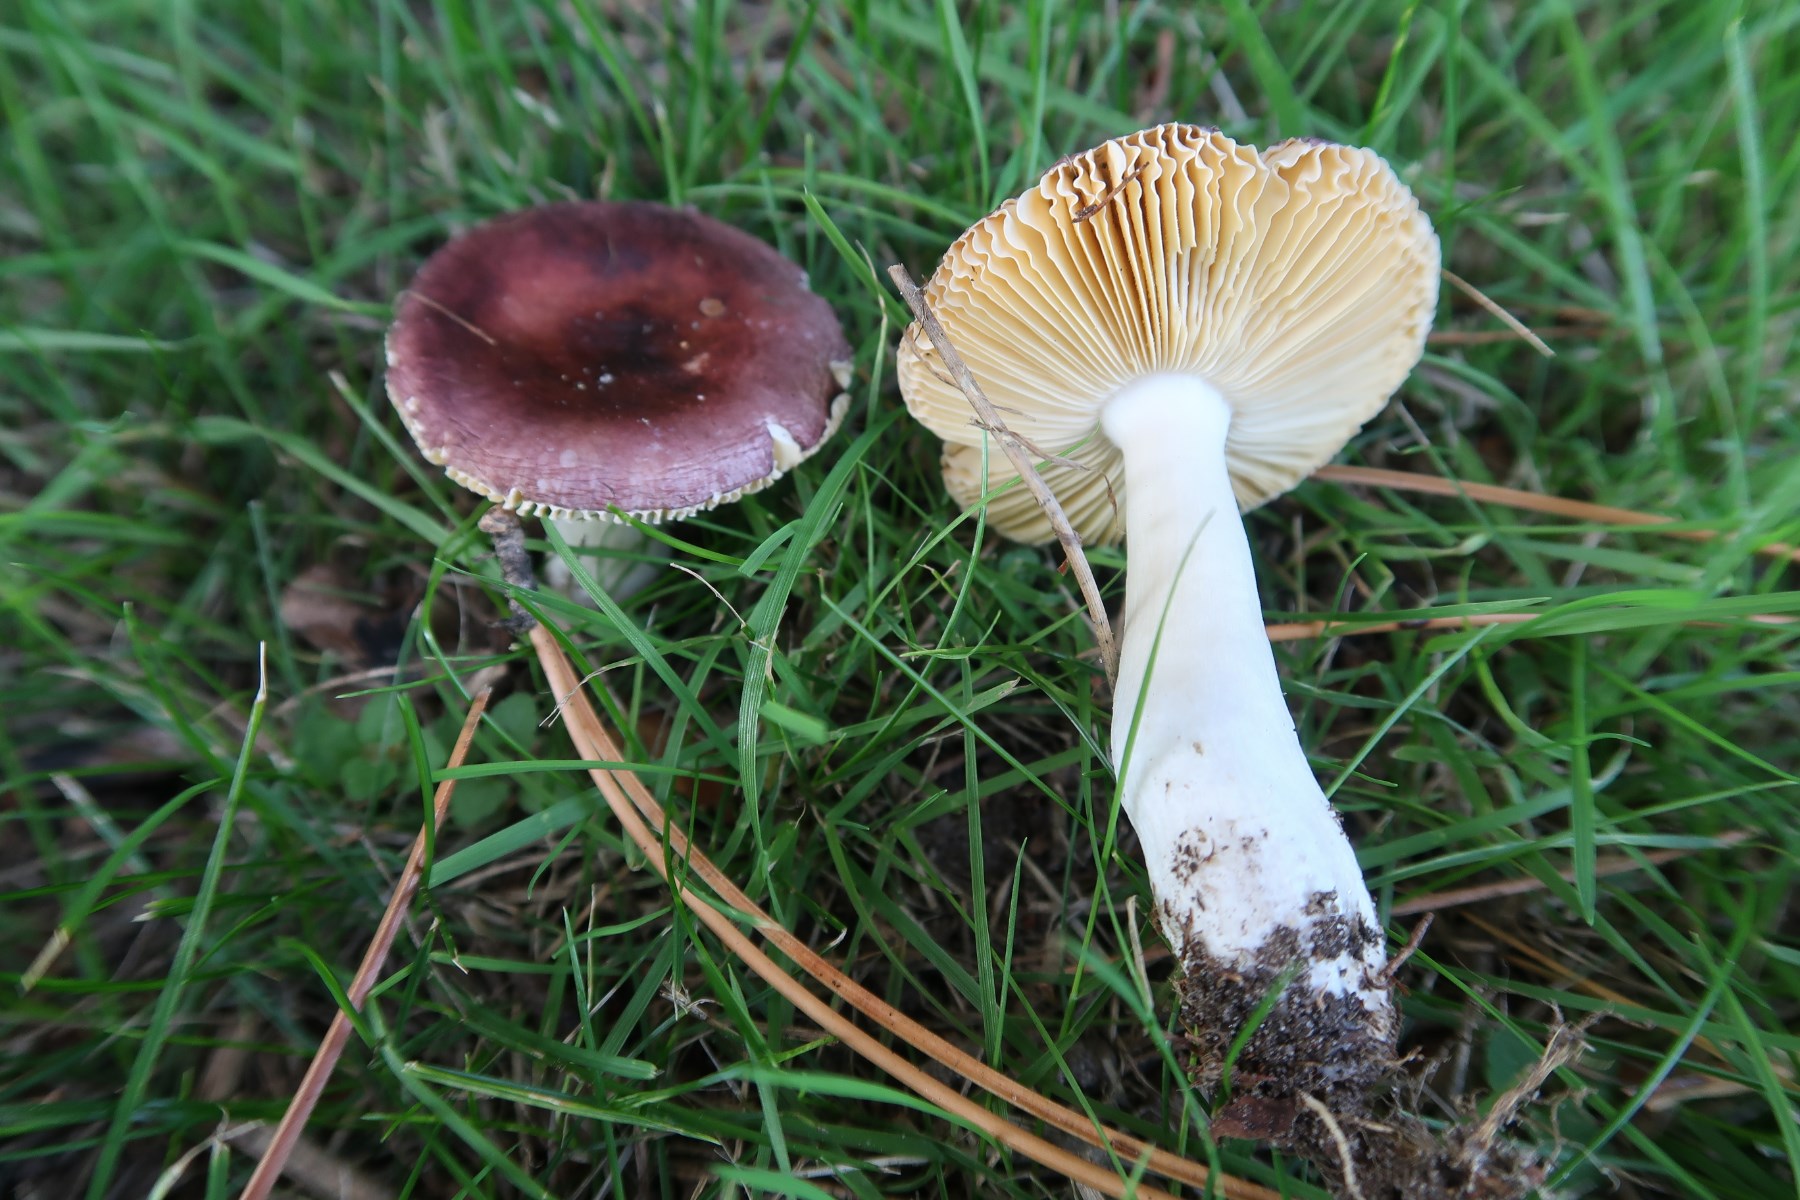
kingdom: Fungi
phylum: Basidiomycota
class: Agaricomycetes
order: Russulales
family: Russulaceae
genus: Russula
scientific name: Russula cessans
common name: fyrre-skørhat
